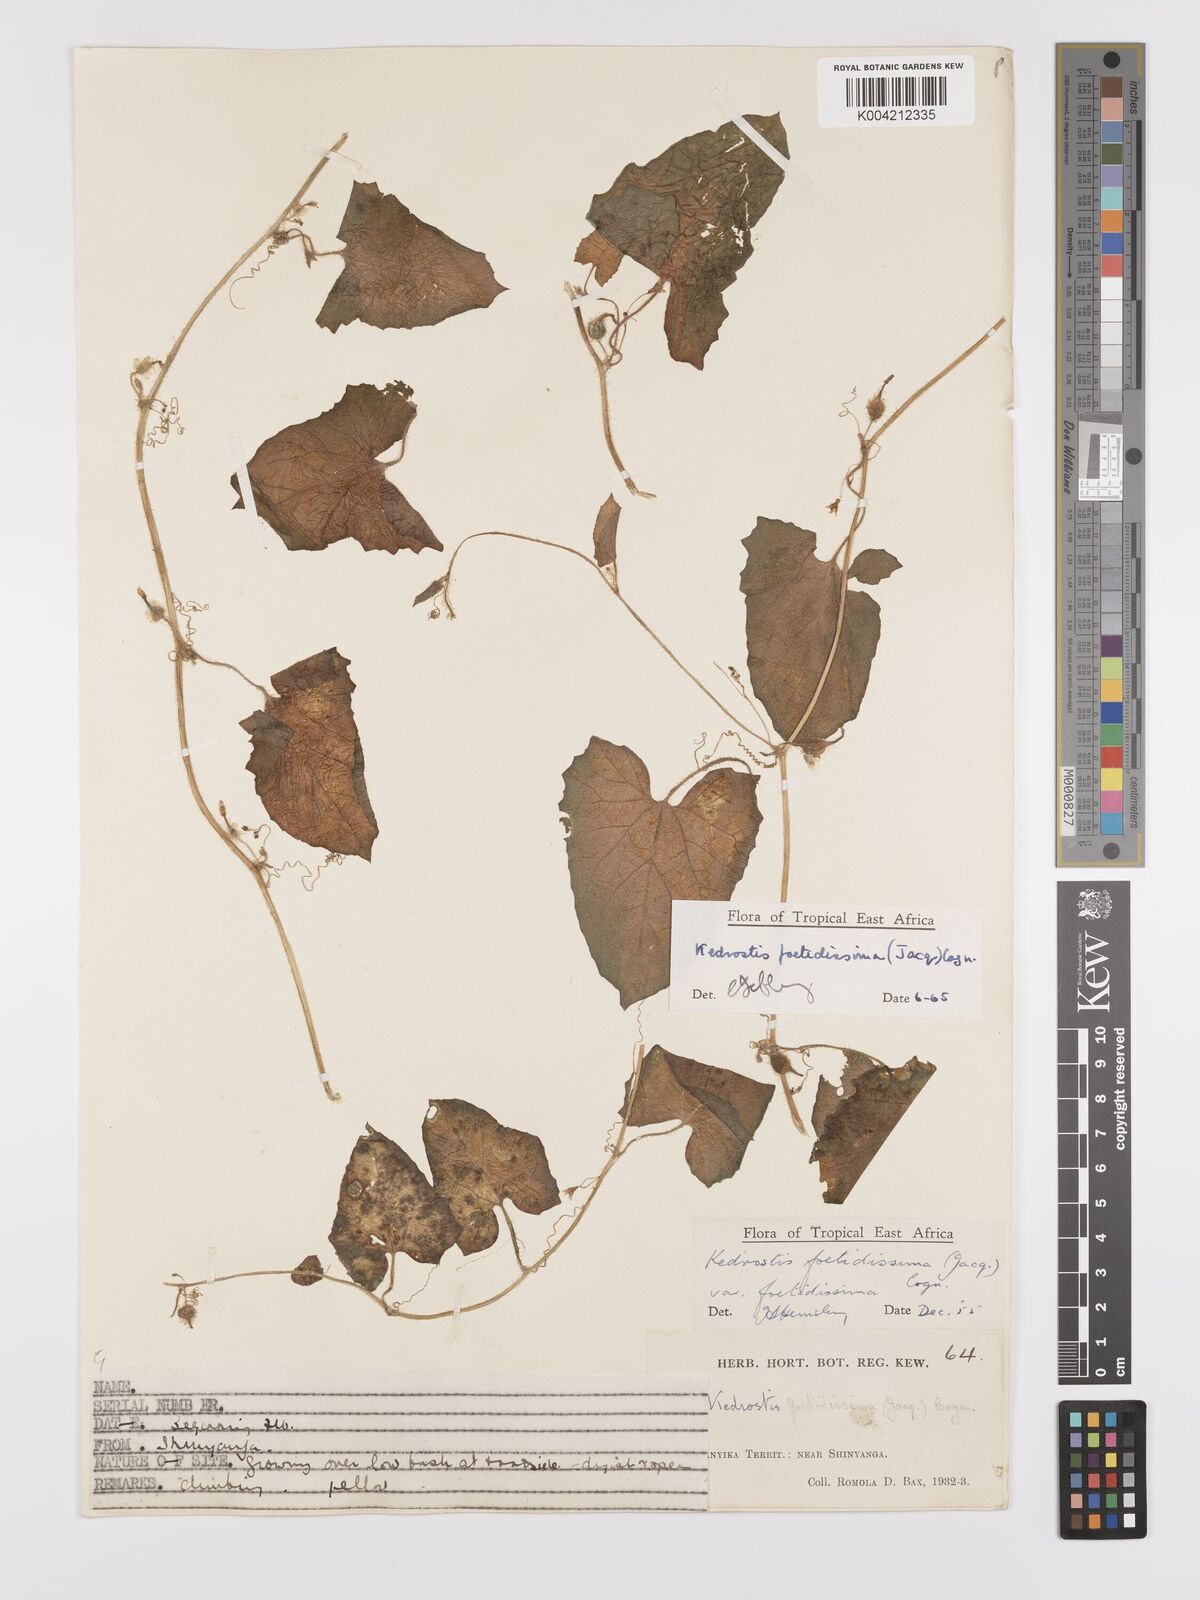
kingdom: Plantae
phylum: Tracheophyta
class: Magnoliopsida
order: Cucurbitales
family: Cucurbitaceae
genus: Kedrostis
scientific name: Kedrostis foetidissima
